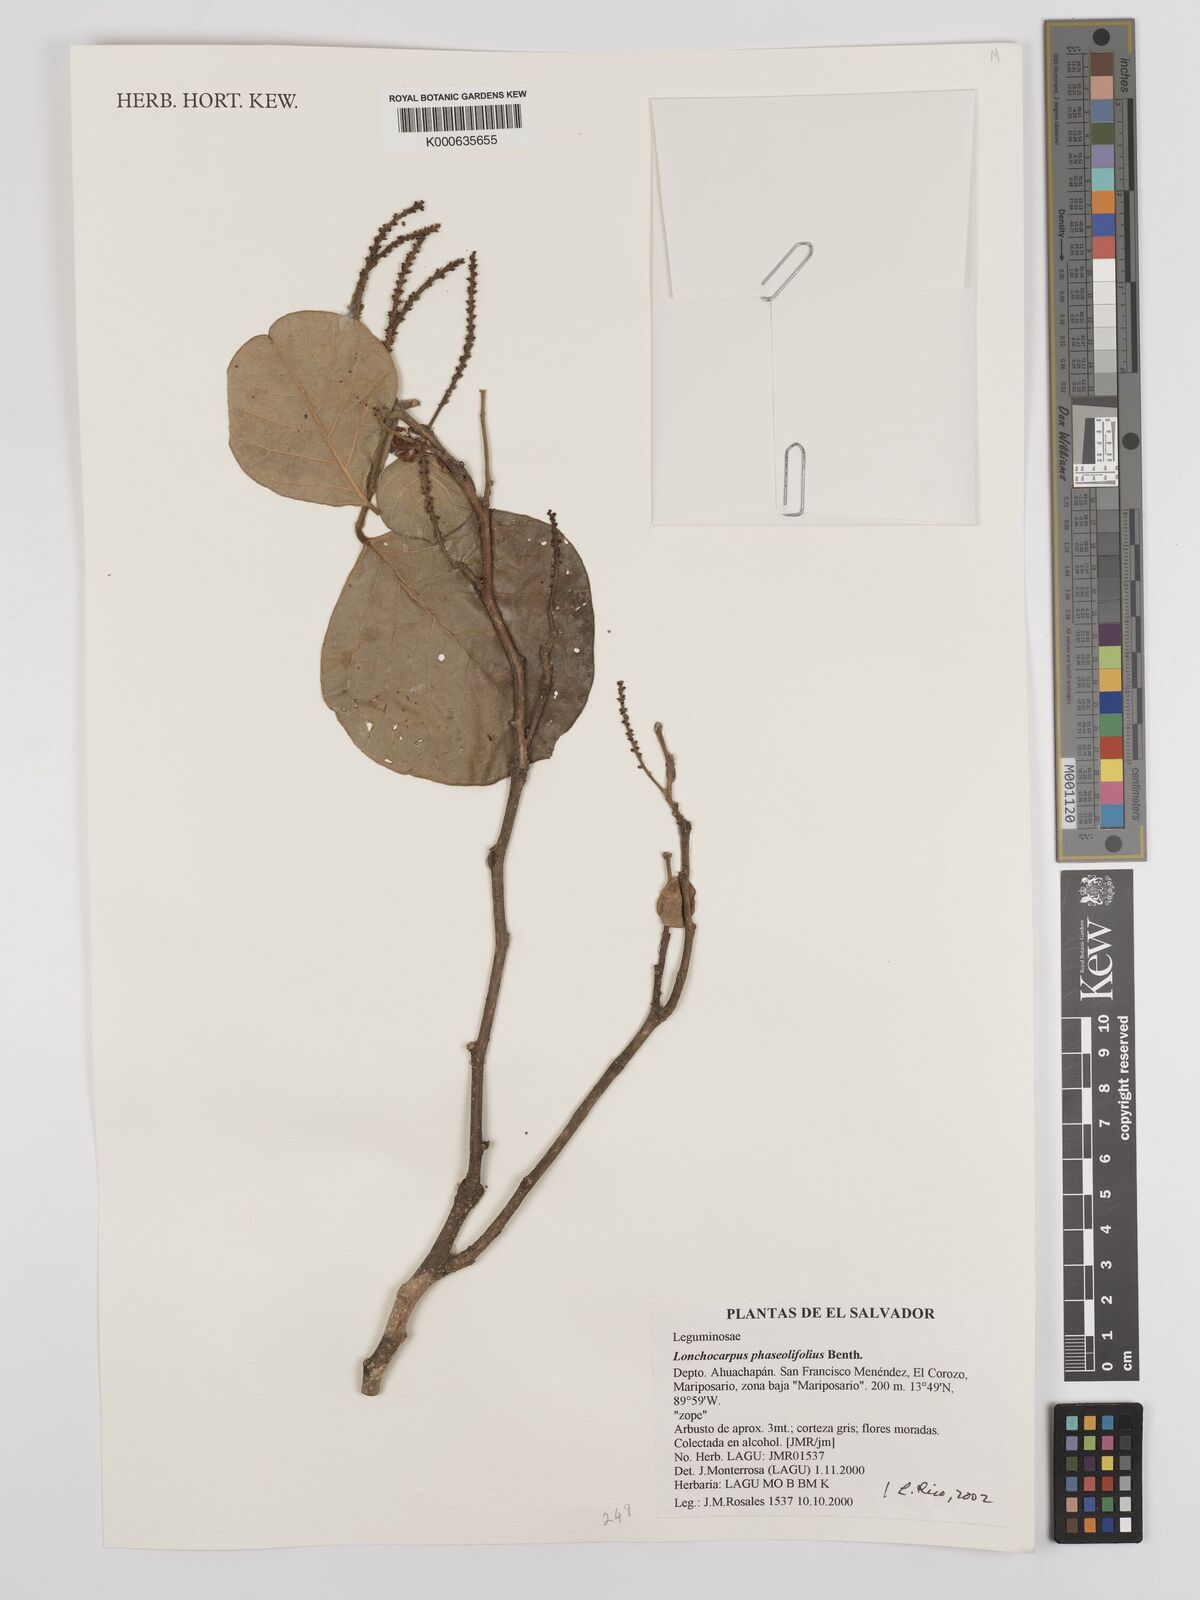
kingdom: Plantae
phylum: Tracheophyta
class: Magnoliopsida
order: Fabales
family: Fabaceae
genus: Lonchocarpus
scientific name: Lonchocarpus phaseolifolius
